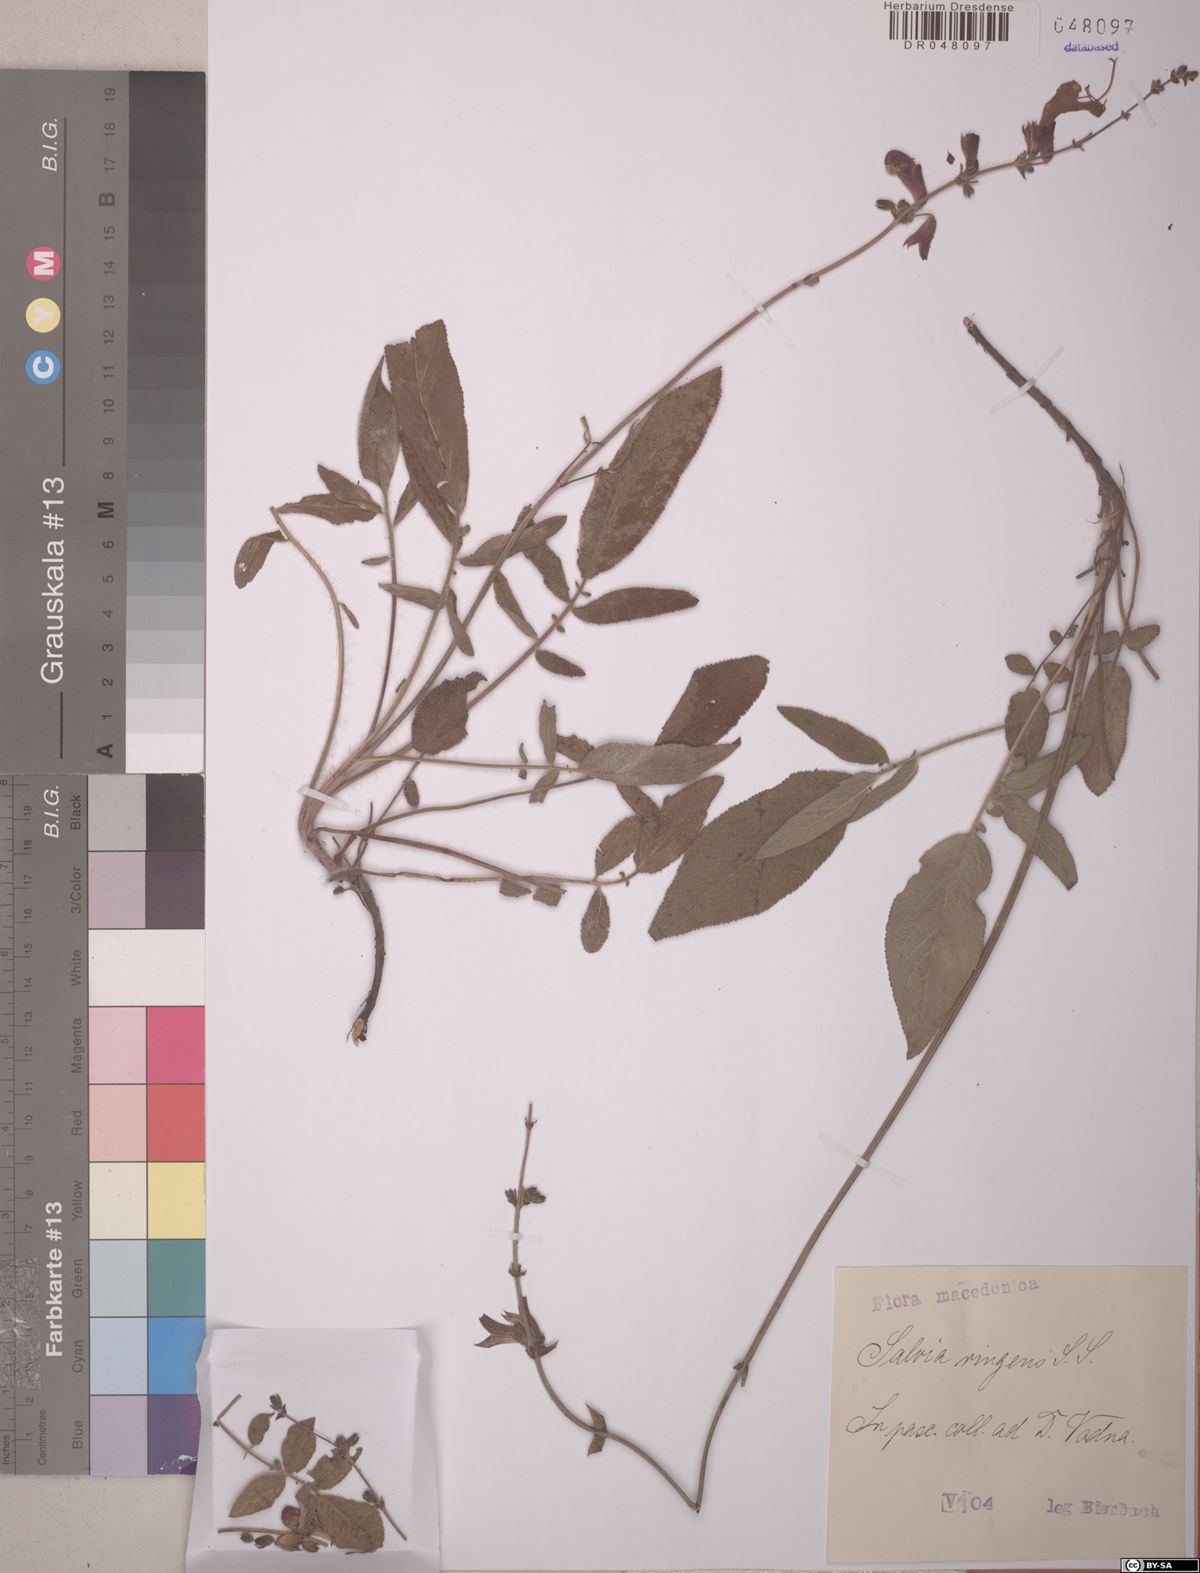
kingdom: Plantae
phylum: Tracheophyta
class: Magnoliopsida
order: Lamiales
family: Lamiaceae
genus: Salvia
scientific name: Salvia ringens
